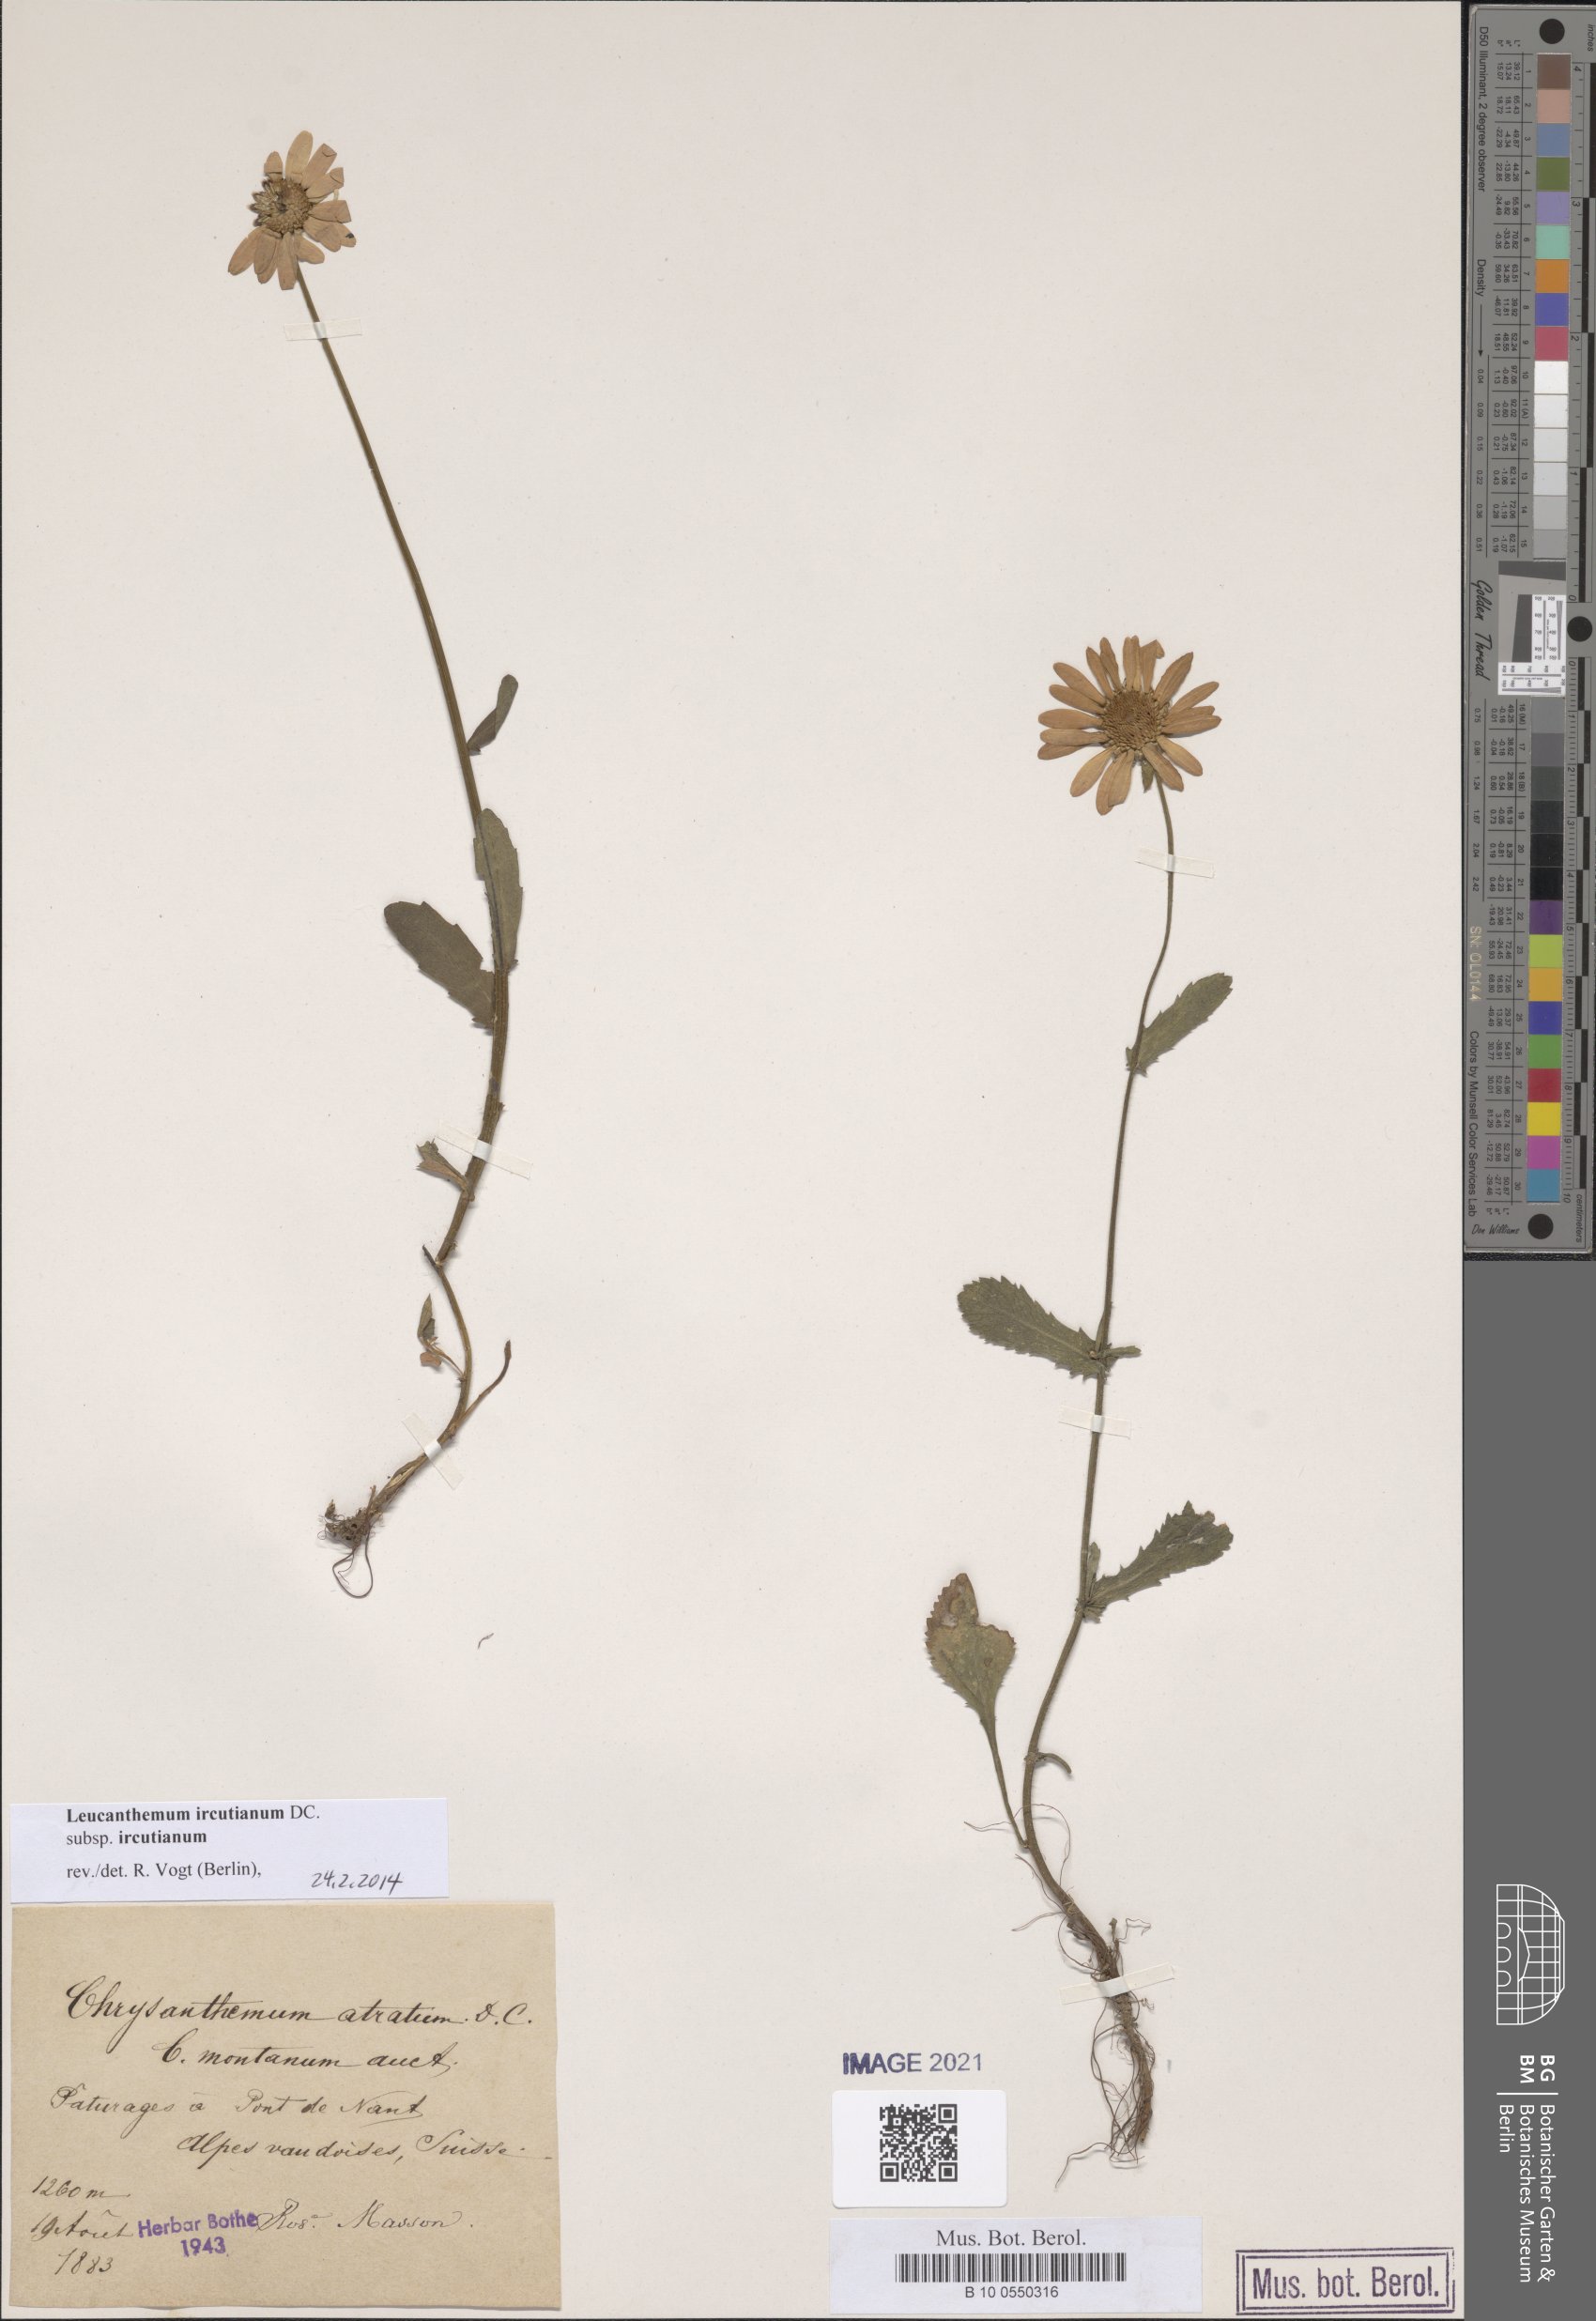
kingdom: Plantae
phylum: Tracheophyta
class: Magnoliopsida
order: Asterales
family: Asteraceae
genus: Leucanthemum
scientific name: Leucanthemum ircutianum
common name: Daisy
